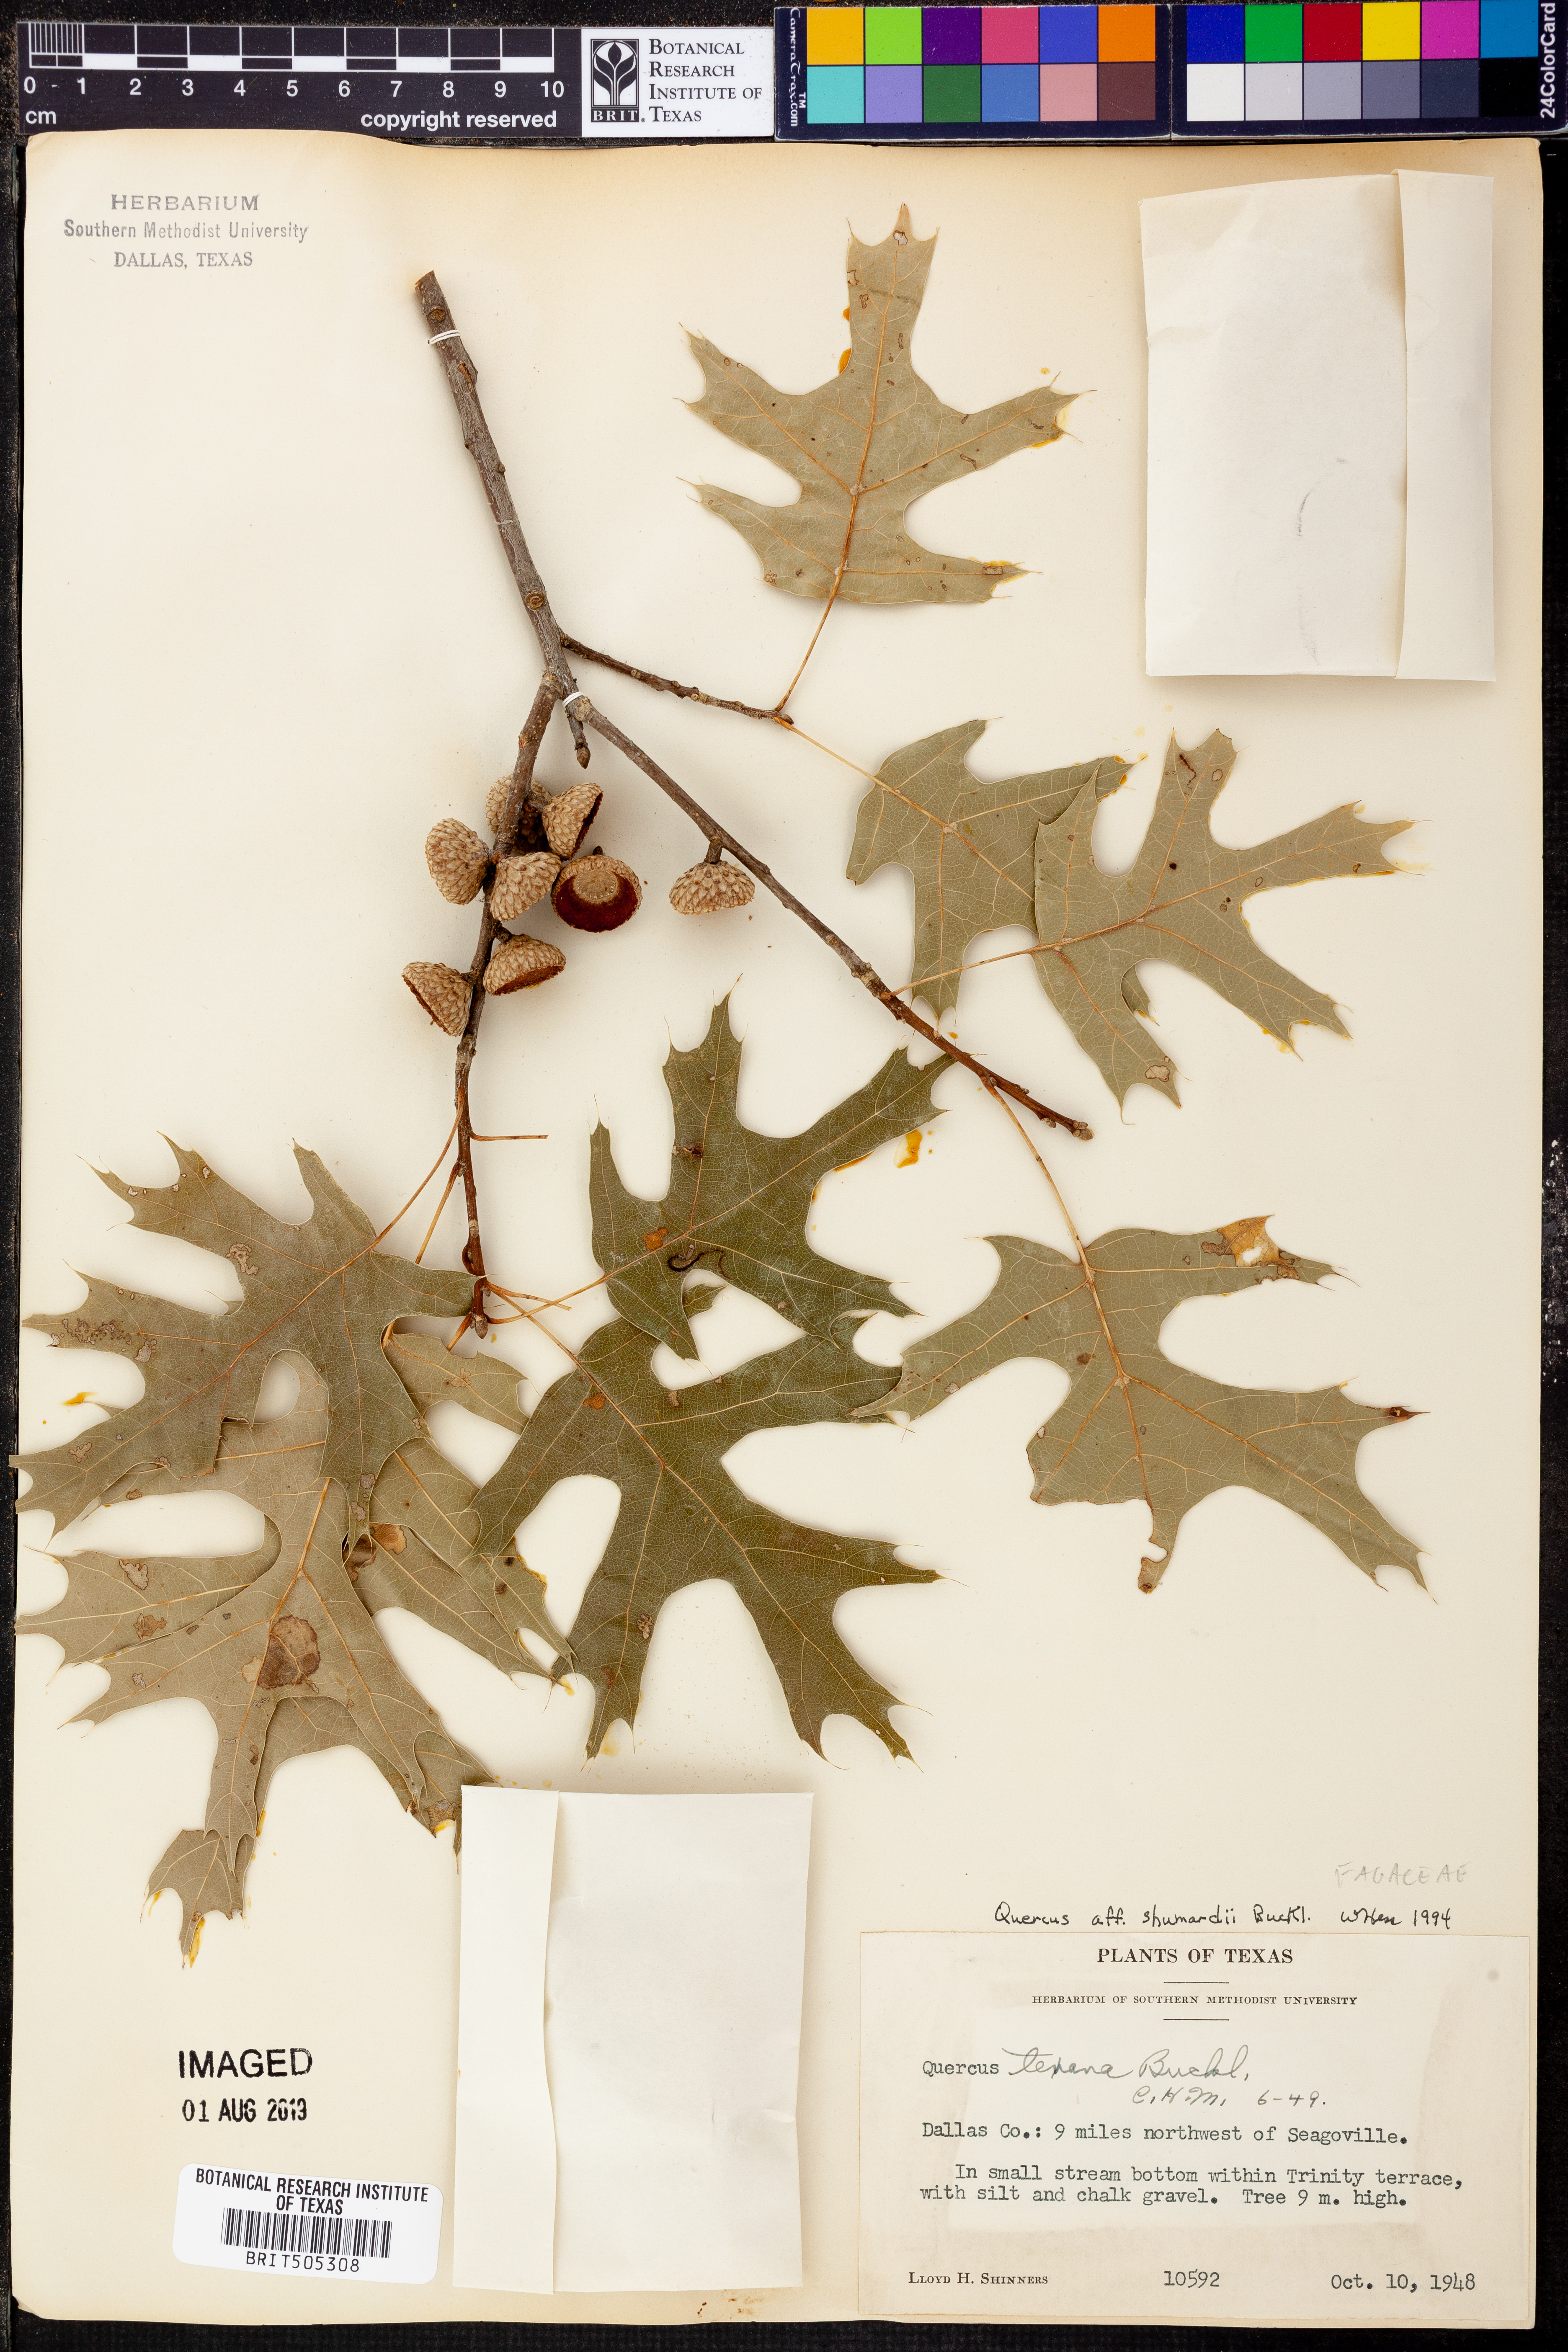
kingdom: Plantae
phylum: Tracheophyta
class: Magnoliopsida
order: Fagales
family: Fagaceae
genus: Quercus
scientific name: Quercus shumardii
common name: Shumard oak
